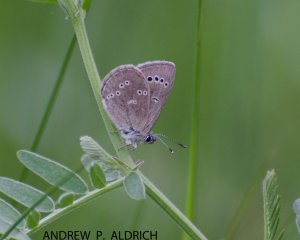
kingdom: Animalia
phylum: Arthropoda
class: Insecta
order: Lepidoptera
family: Lycaenidae
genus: Glaucopsyche
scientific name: Glaucopsyche lygdamus
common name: Silvery Blue
